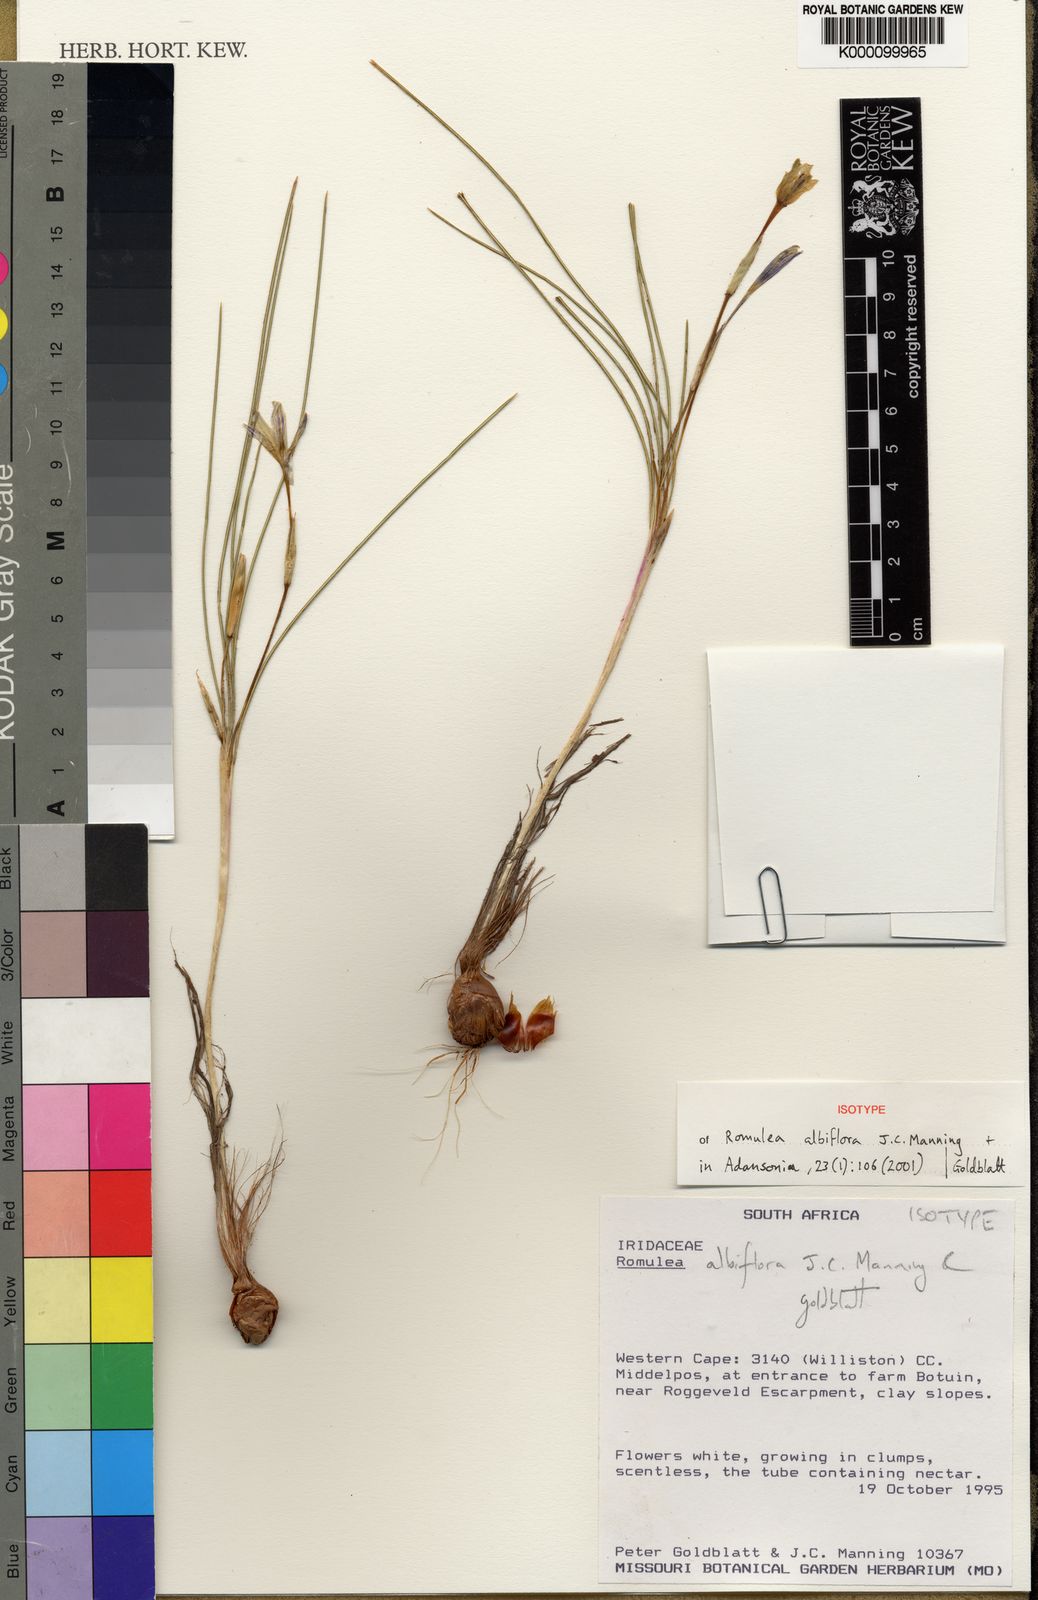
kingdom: Plantae
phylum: Tracheophyta
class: Liliopsida
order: Asparagales
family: Iridaceae
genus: Romulea
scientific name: Romulea albiflora
